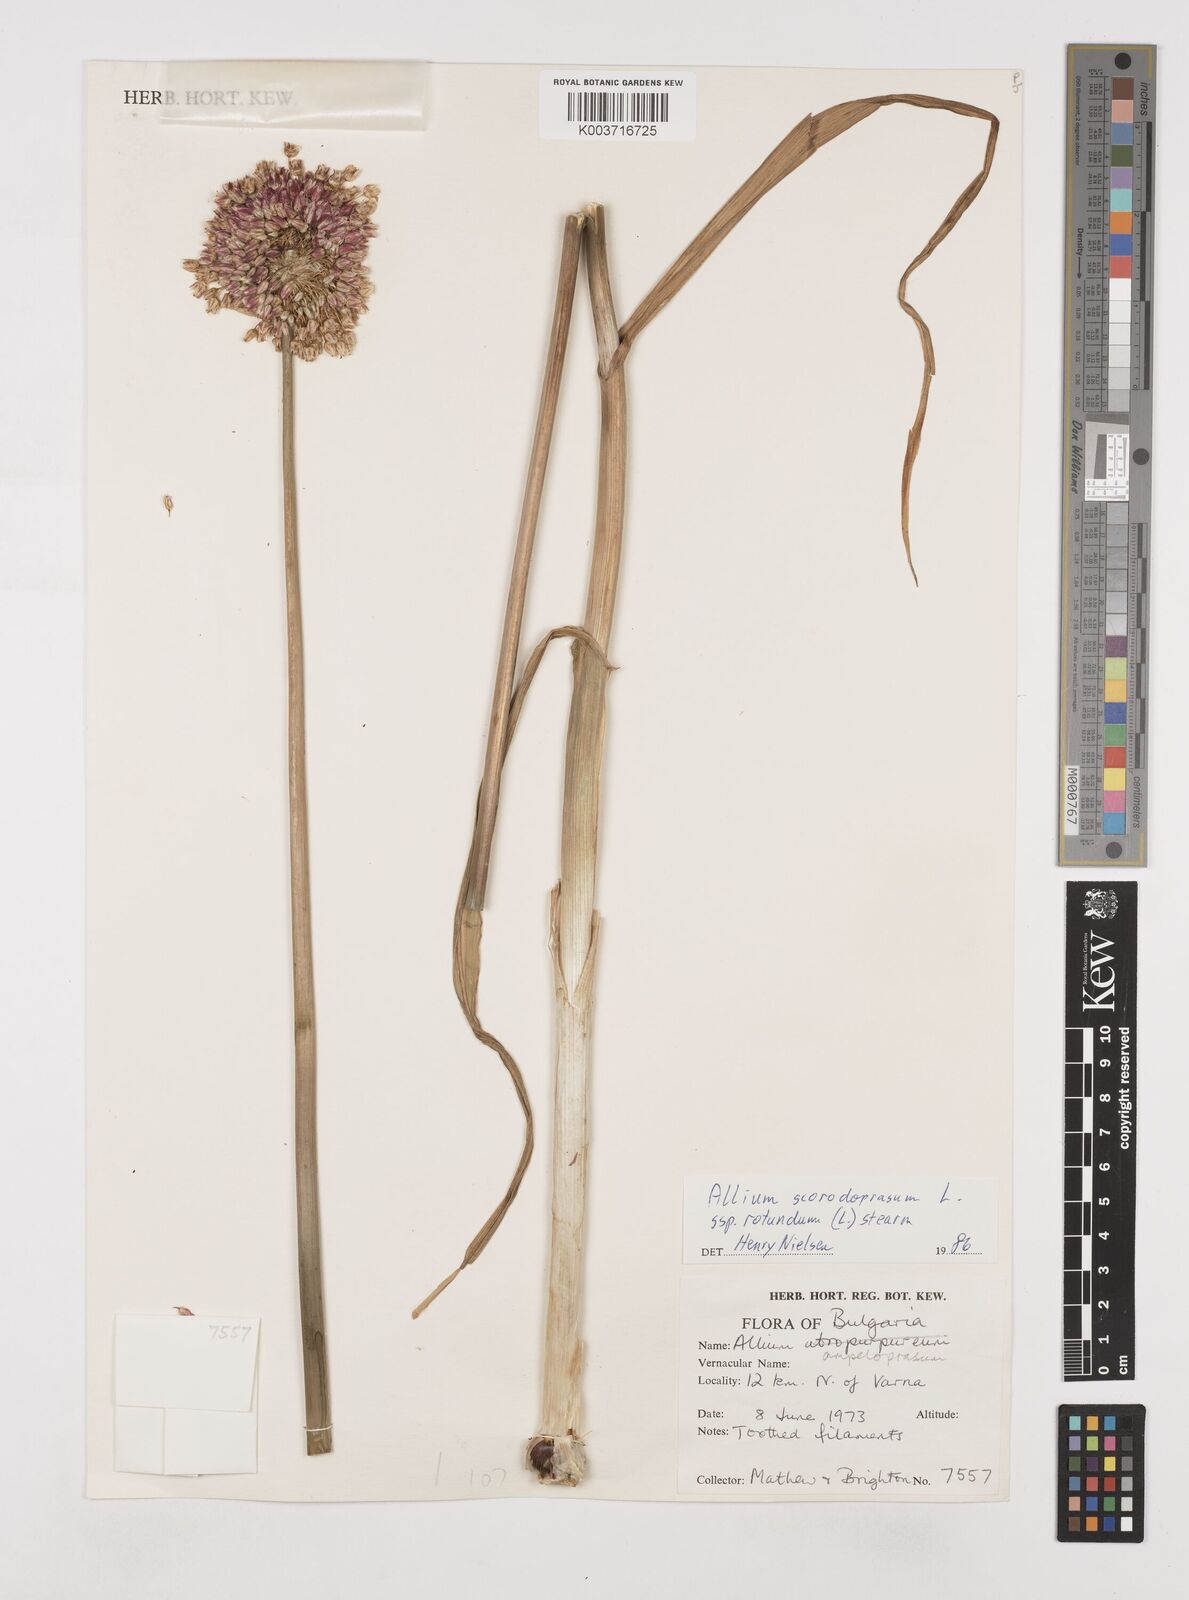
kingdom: Plantae
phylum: Tracheophyta
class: Liliopsida
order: Asparagales
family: Amaryllidaceae
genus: Allium
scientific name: Allium sphaerocephalon
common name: Round-headed leek
